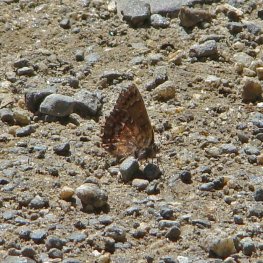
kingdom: Animalia
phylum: Arthropoda
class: Insecta
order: Lepidoptera
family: Lycaenidae
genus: Incisalia
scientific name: Incisalia niphon
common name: Eastern Pine Elfin
